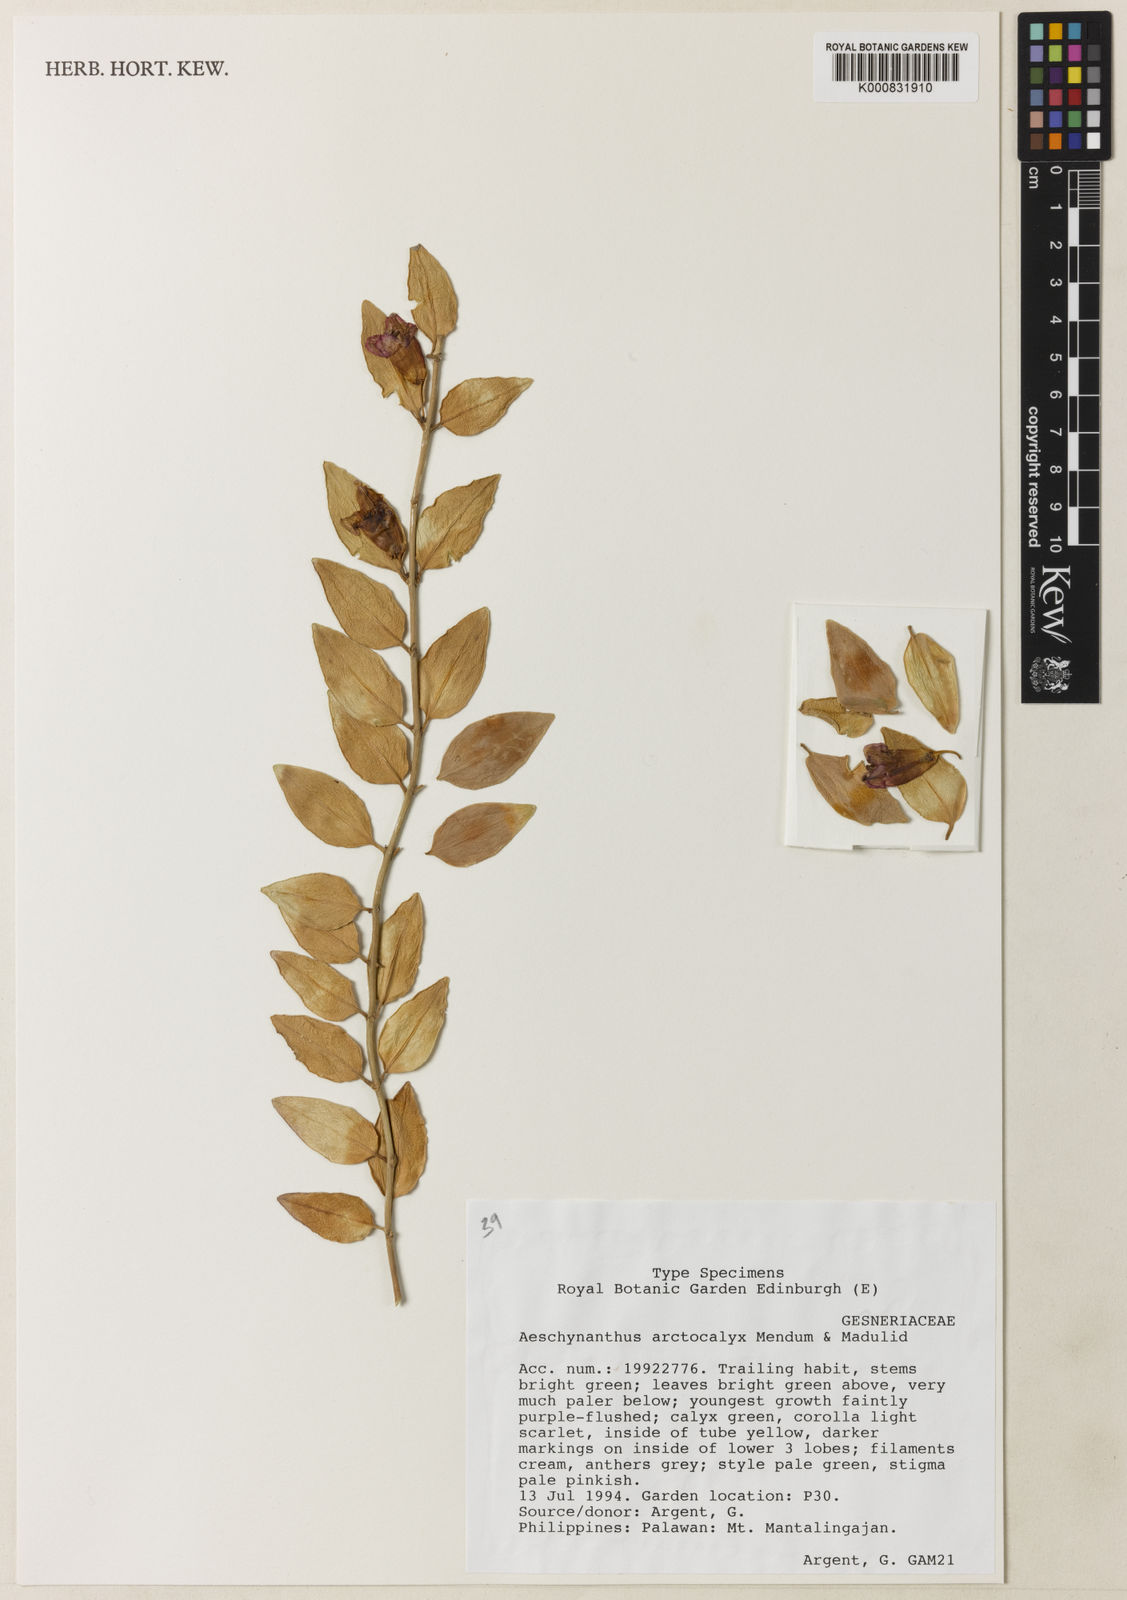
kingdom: Plantae
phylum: Tracheophyta
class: Magnoliopsida
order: Lamiales
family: Gesneriaceae
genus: Aeschynanthus
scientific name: Aeschynanthus arctocalyx
